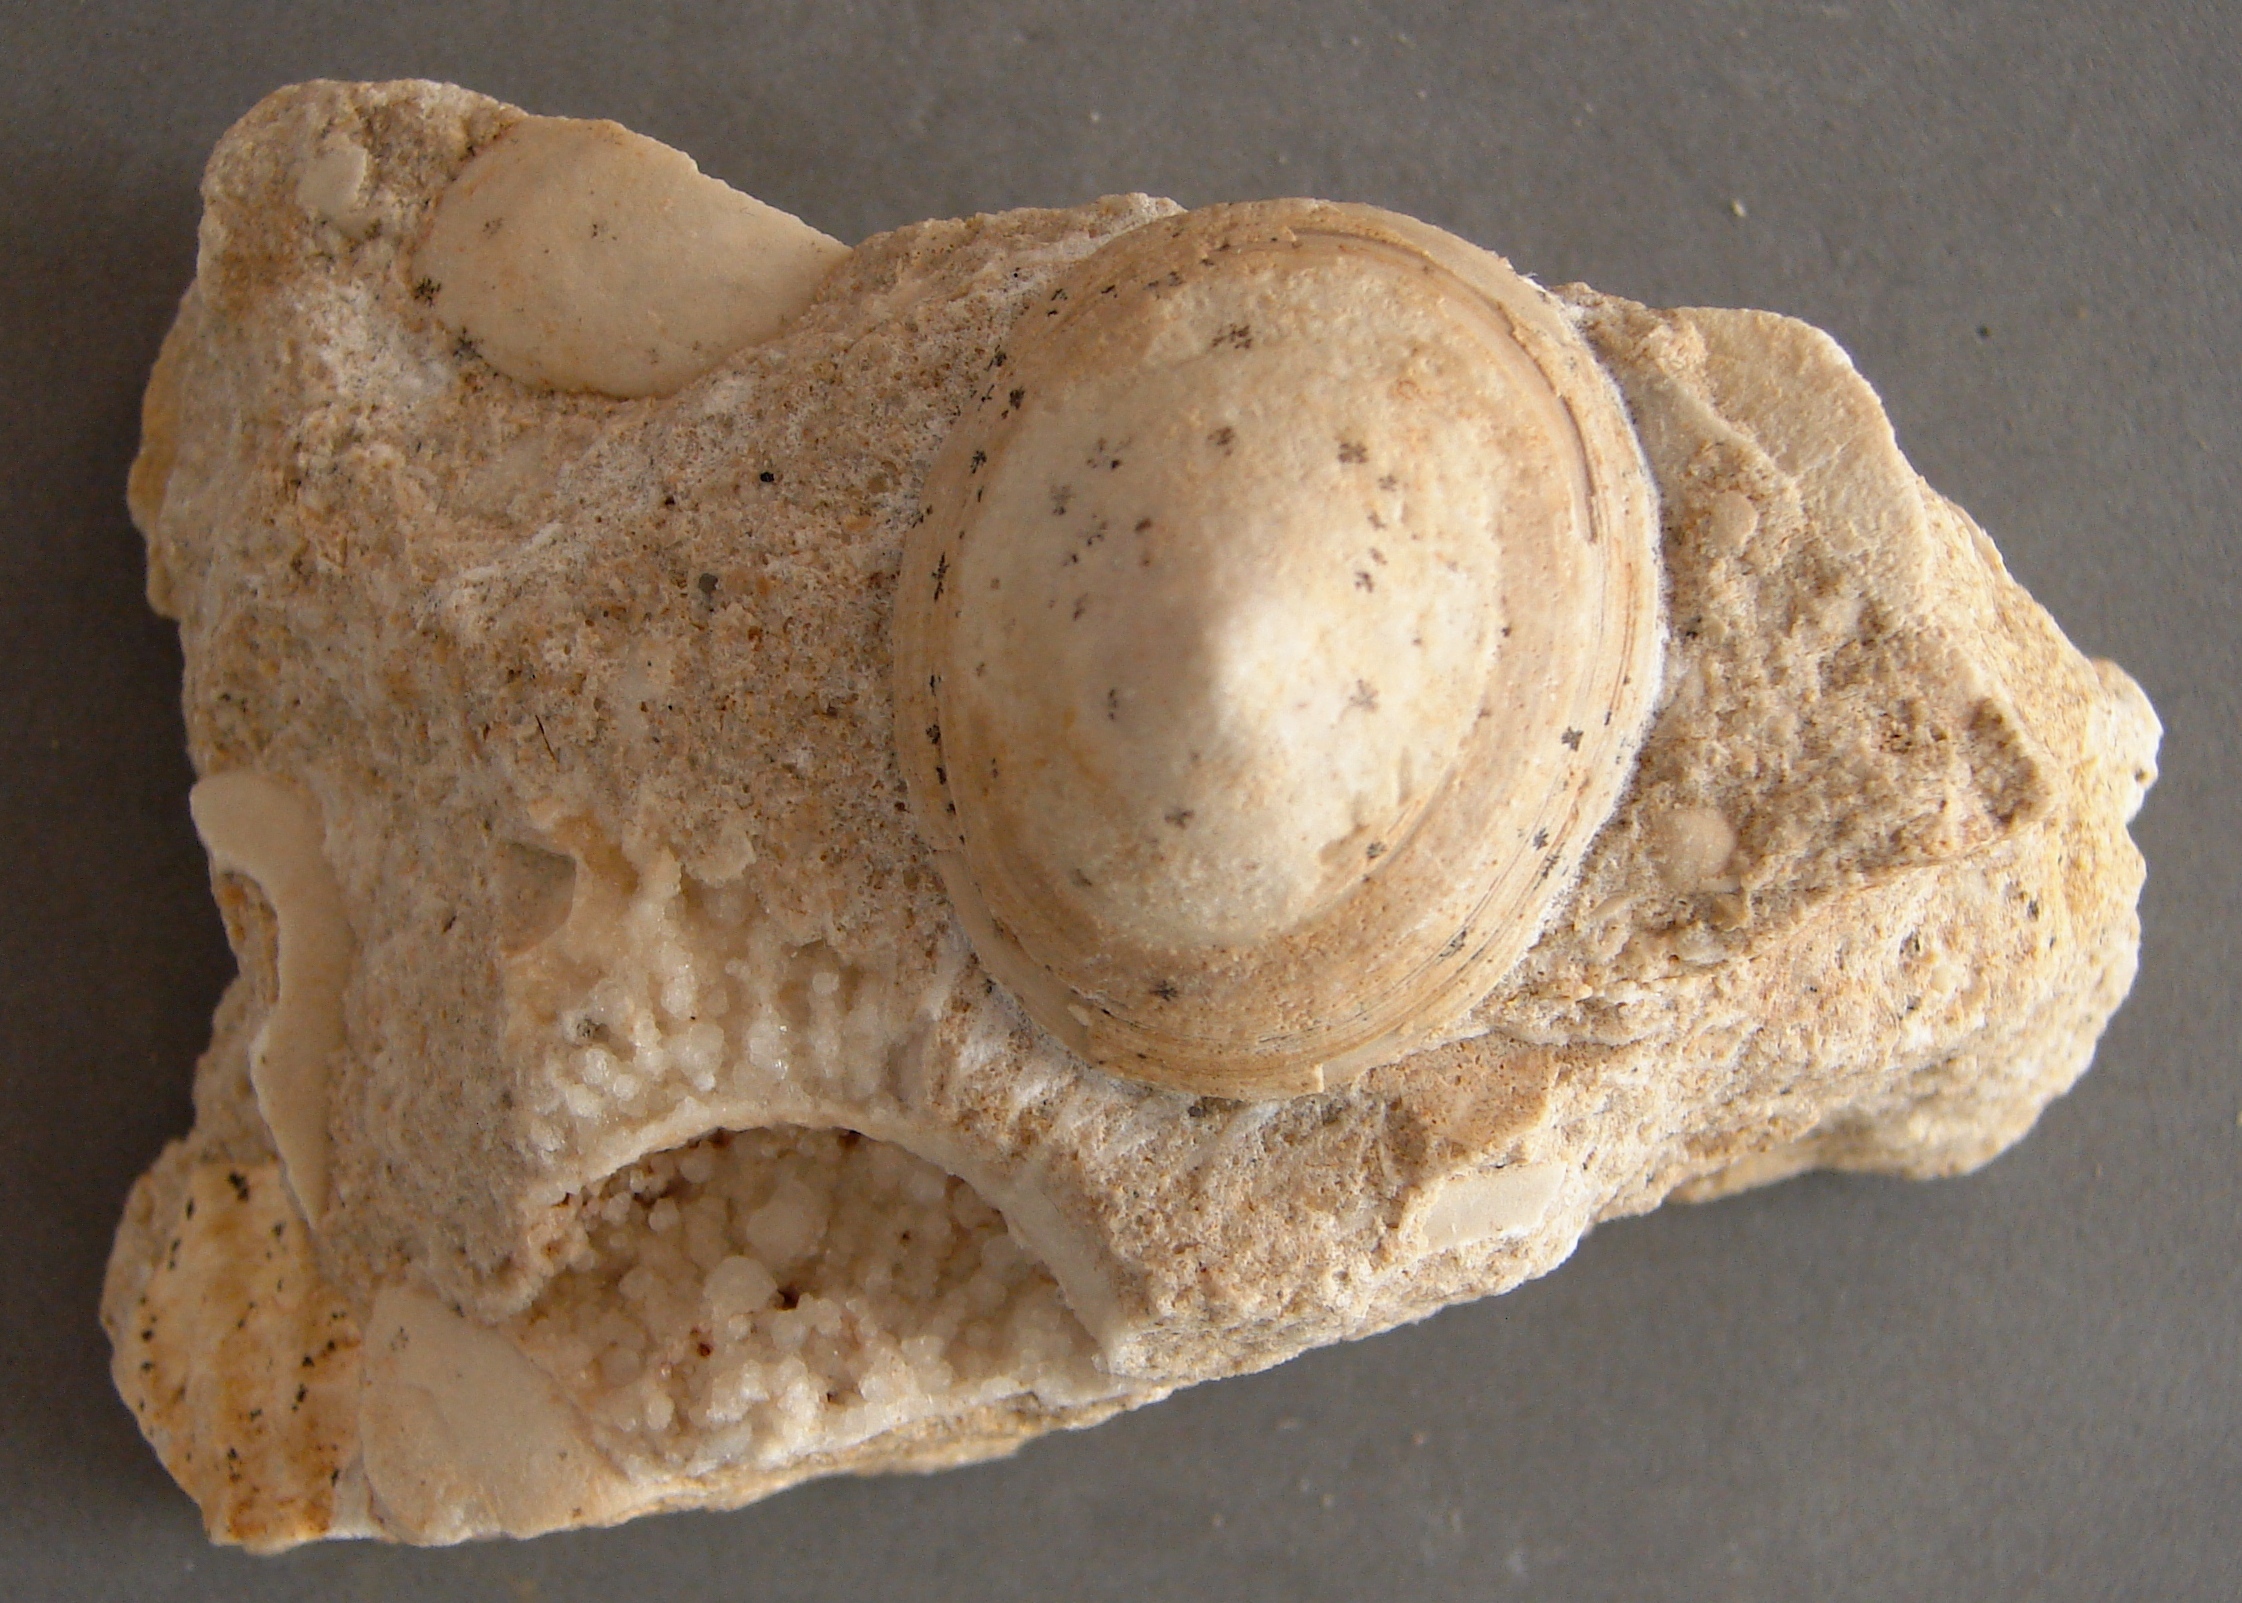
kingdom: Animalia
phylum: Mollusca
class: Gastropoda
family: Acmaeadae
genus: Scurriopsis
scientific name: Scurriopsis Patella hettangiensis
